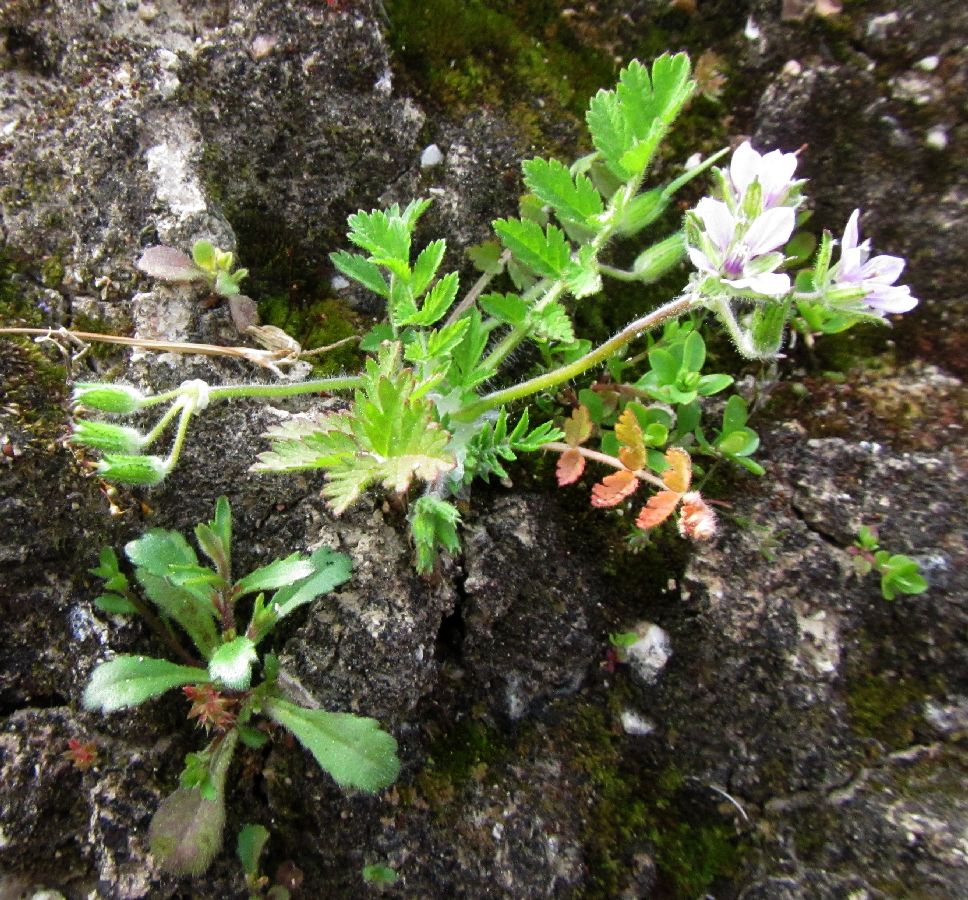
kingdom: Plantae
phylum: Tracheophyta
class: Magnoliopsida
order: Geraniales
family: Geraniaceae
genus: Erodium
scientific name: Erodium ciconium
